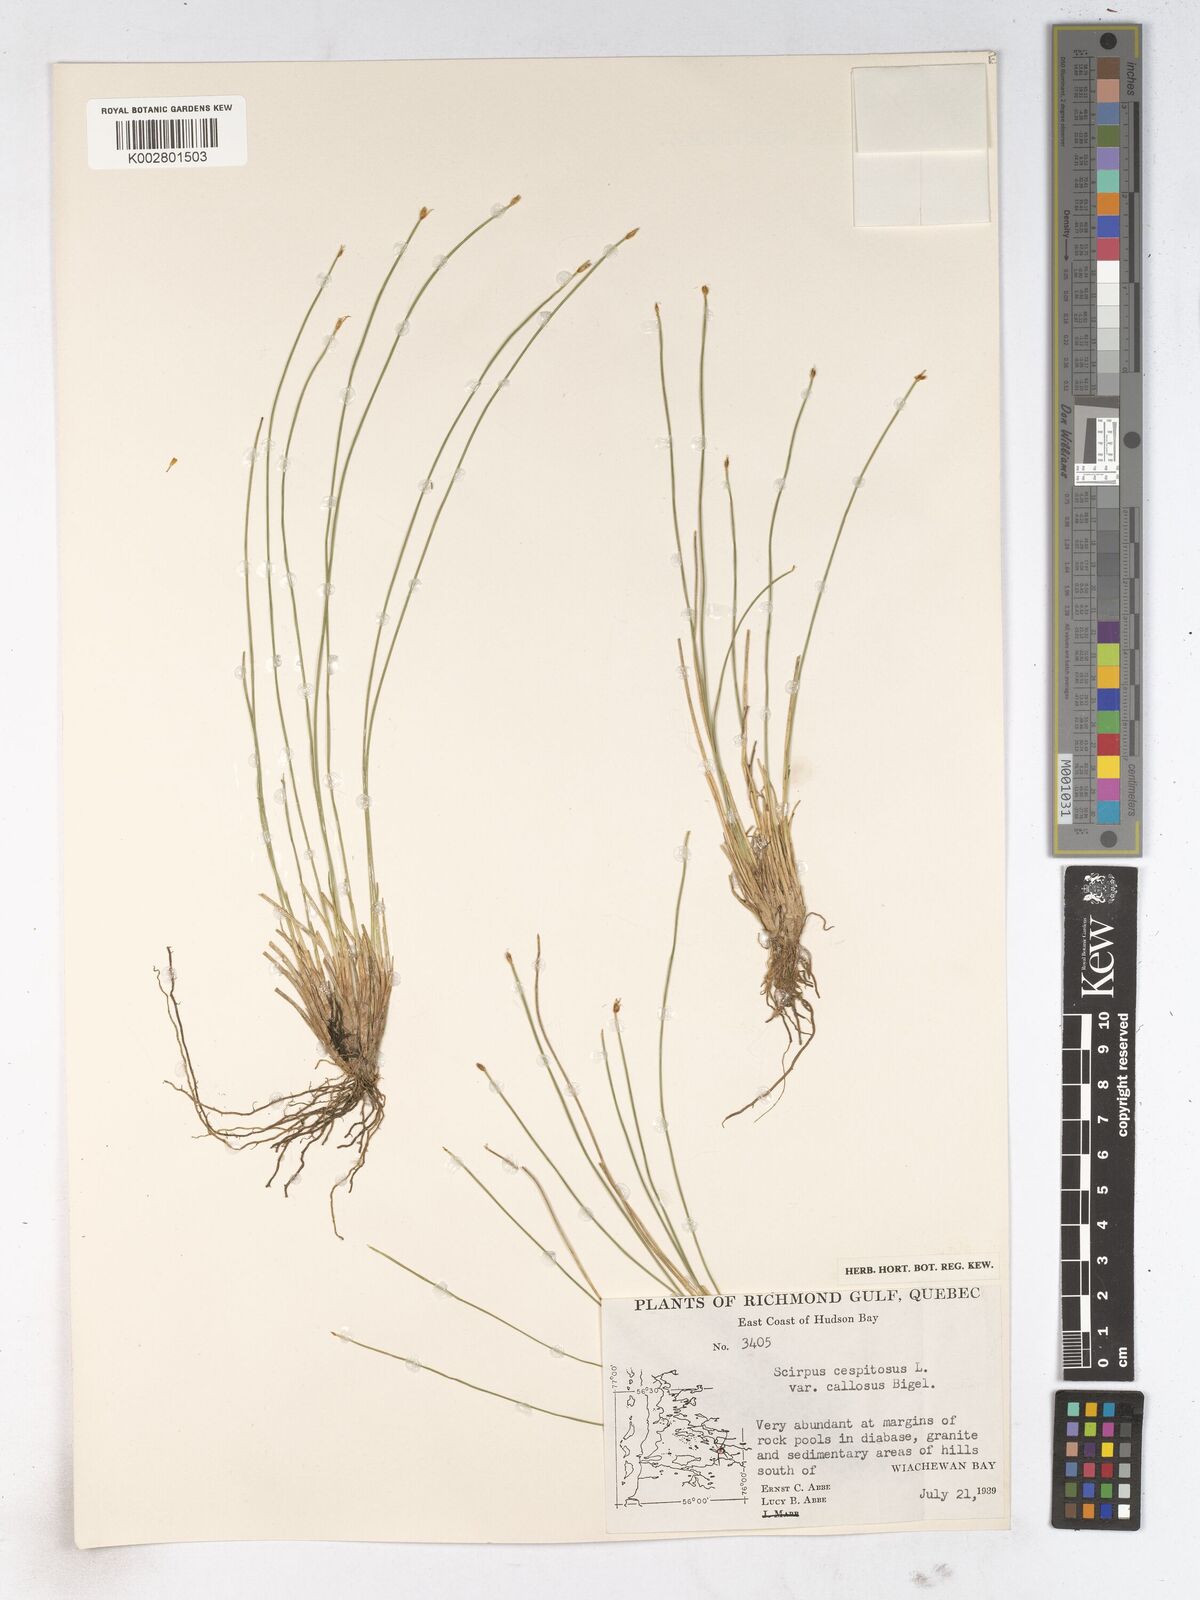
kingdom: Plantae
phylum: Tracheophyta
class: Liliopsida
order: Poales
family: Cyperaceae
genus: Trichophorum
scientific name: Trichophorum cespitosum
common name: Cespitose bulrush
